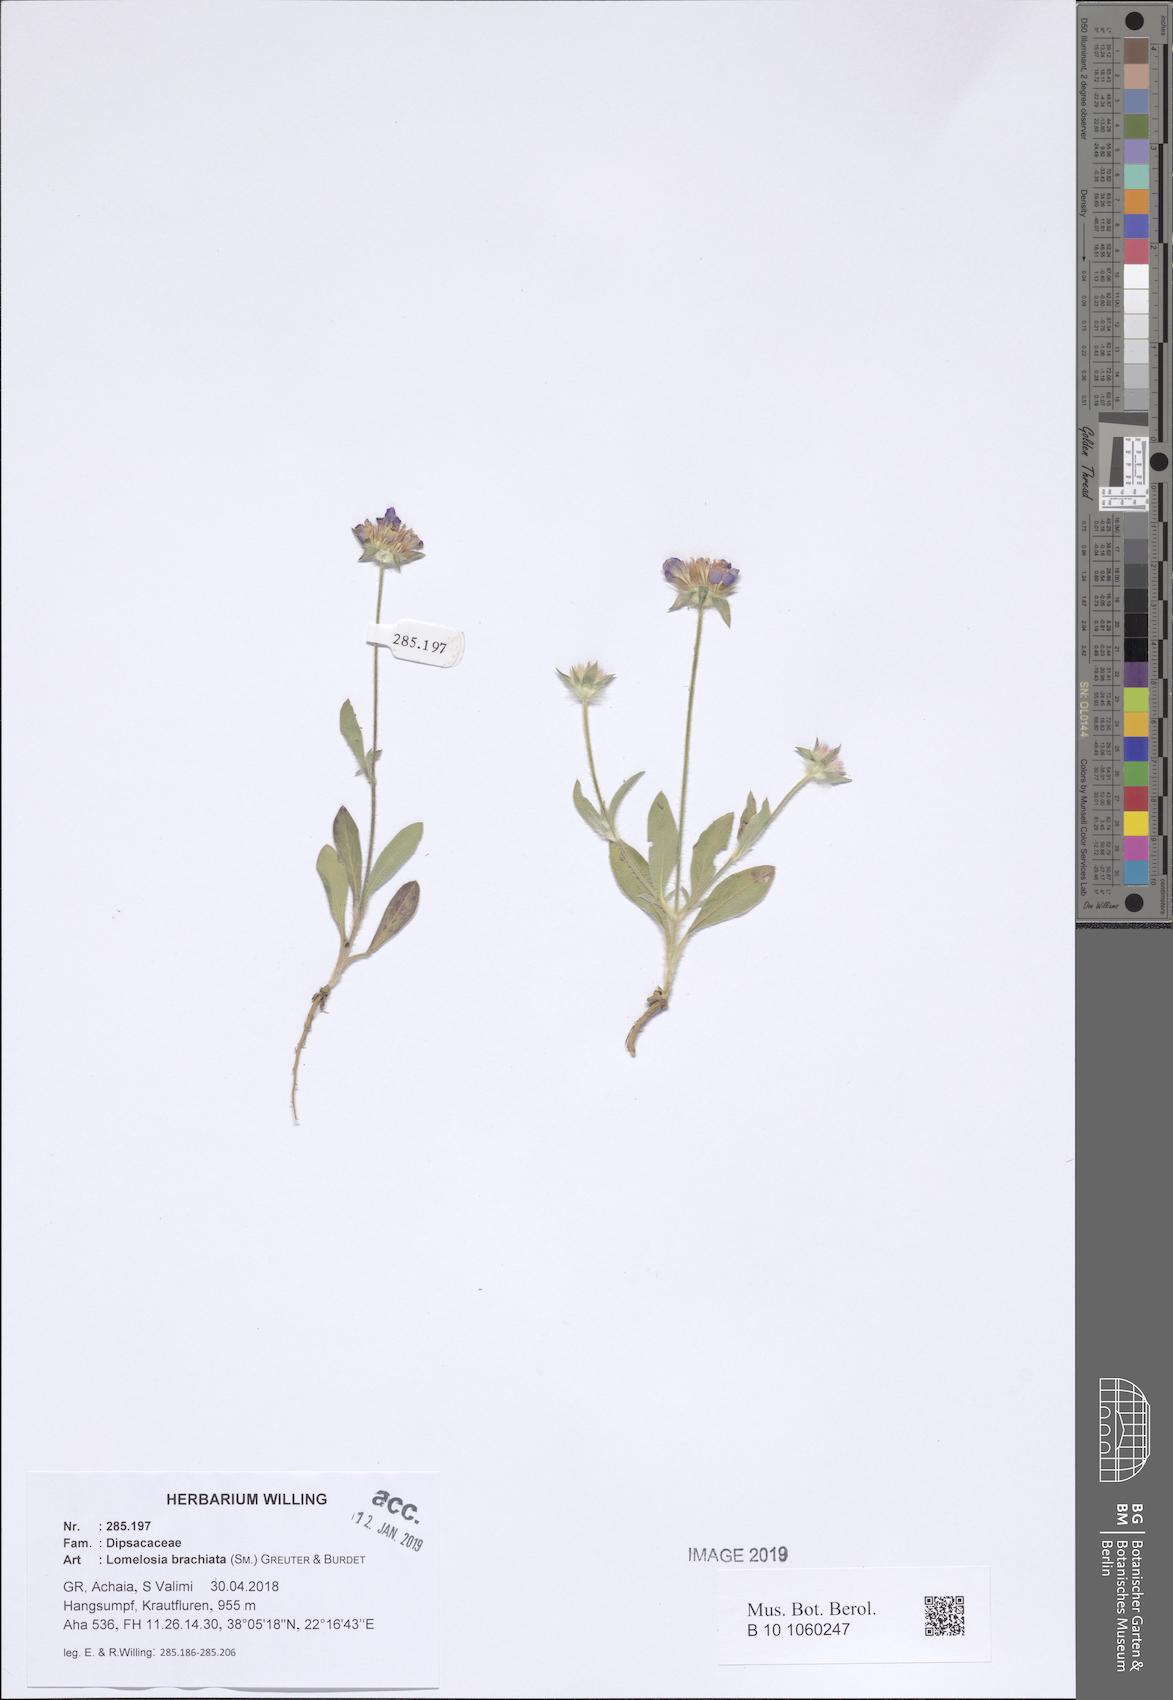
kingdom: Plantae
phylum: Tracheophyta
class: Magnoliopsida
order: Dipsacales
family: Caprifoliaceae
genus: Lomelosia
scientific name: Lomelosia brachiata
